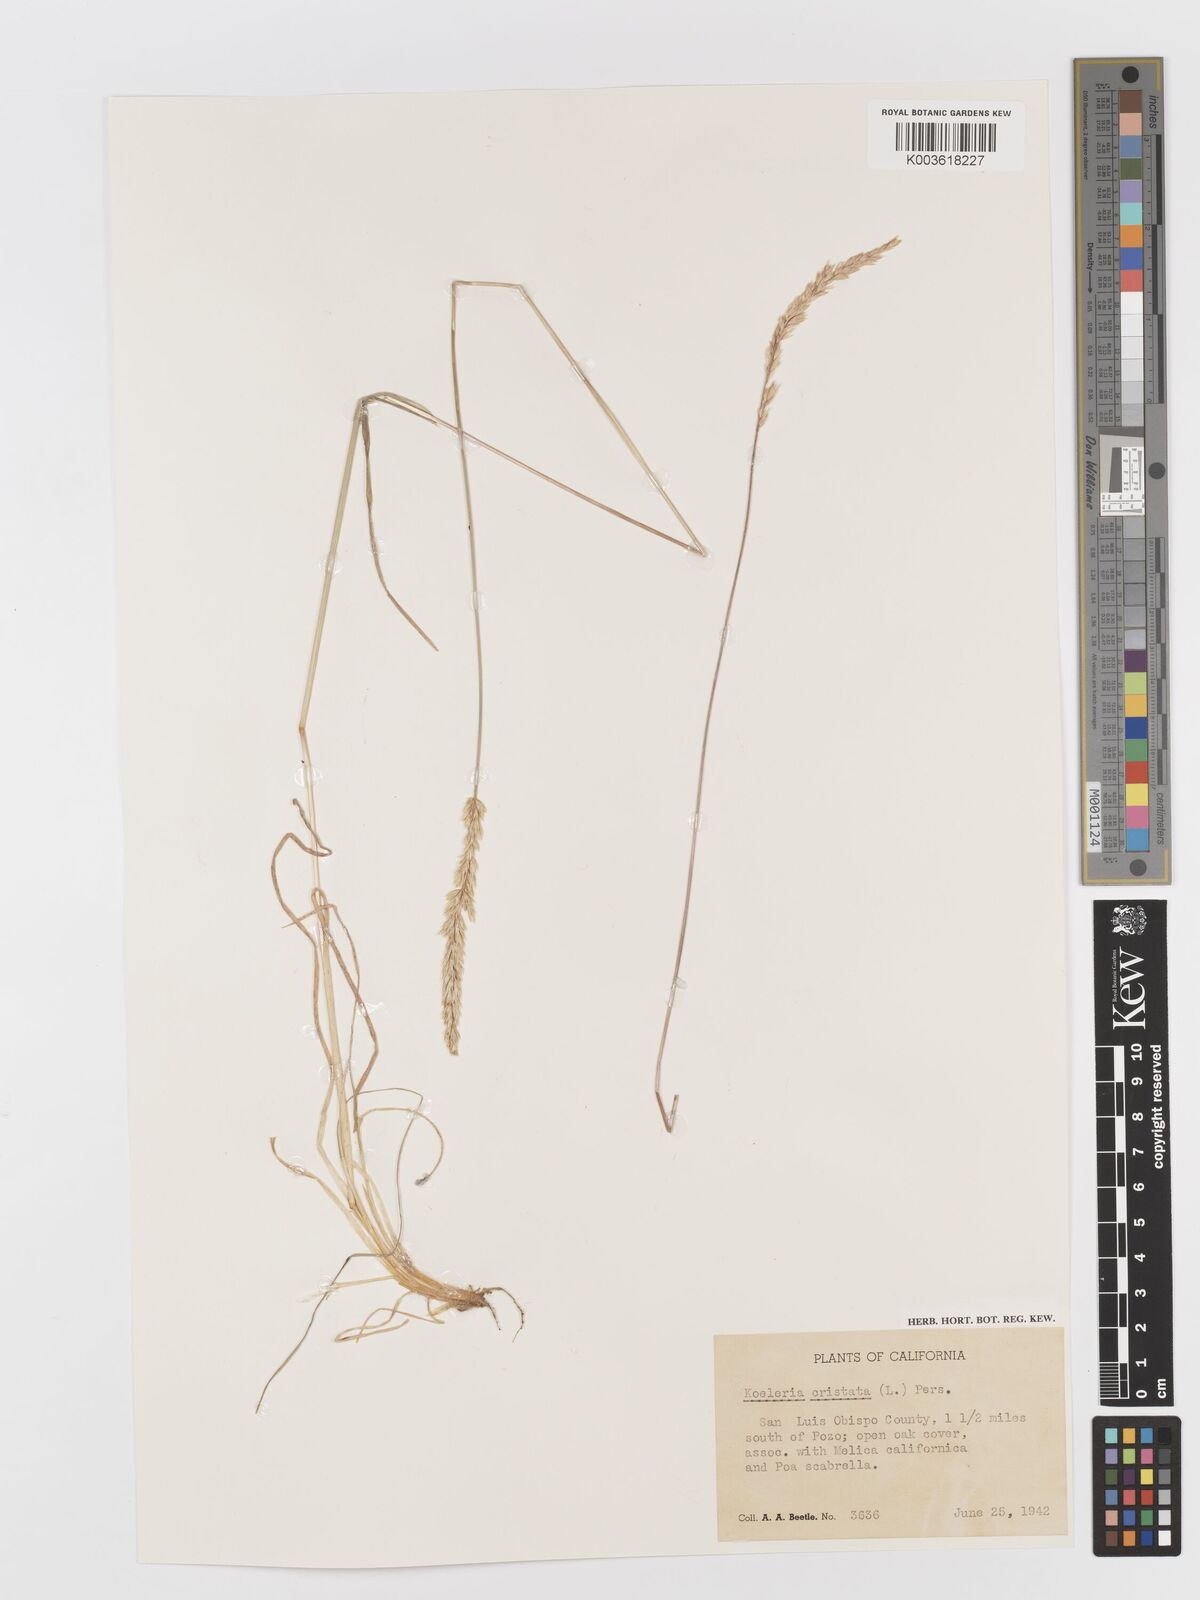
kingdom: Plantae
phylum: Tracheophyta
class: Liliopsida
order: Poales
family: Poaceae
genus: Koeleria
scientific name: Koeleria macrantha
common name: Crested hair-grass
